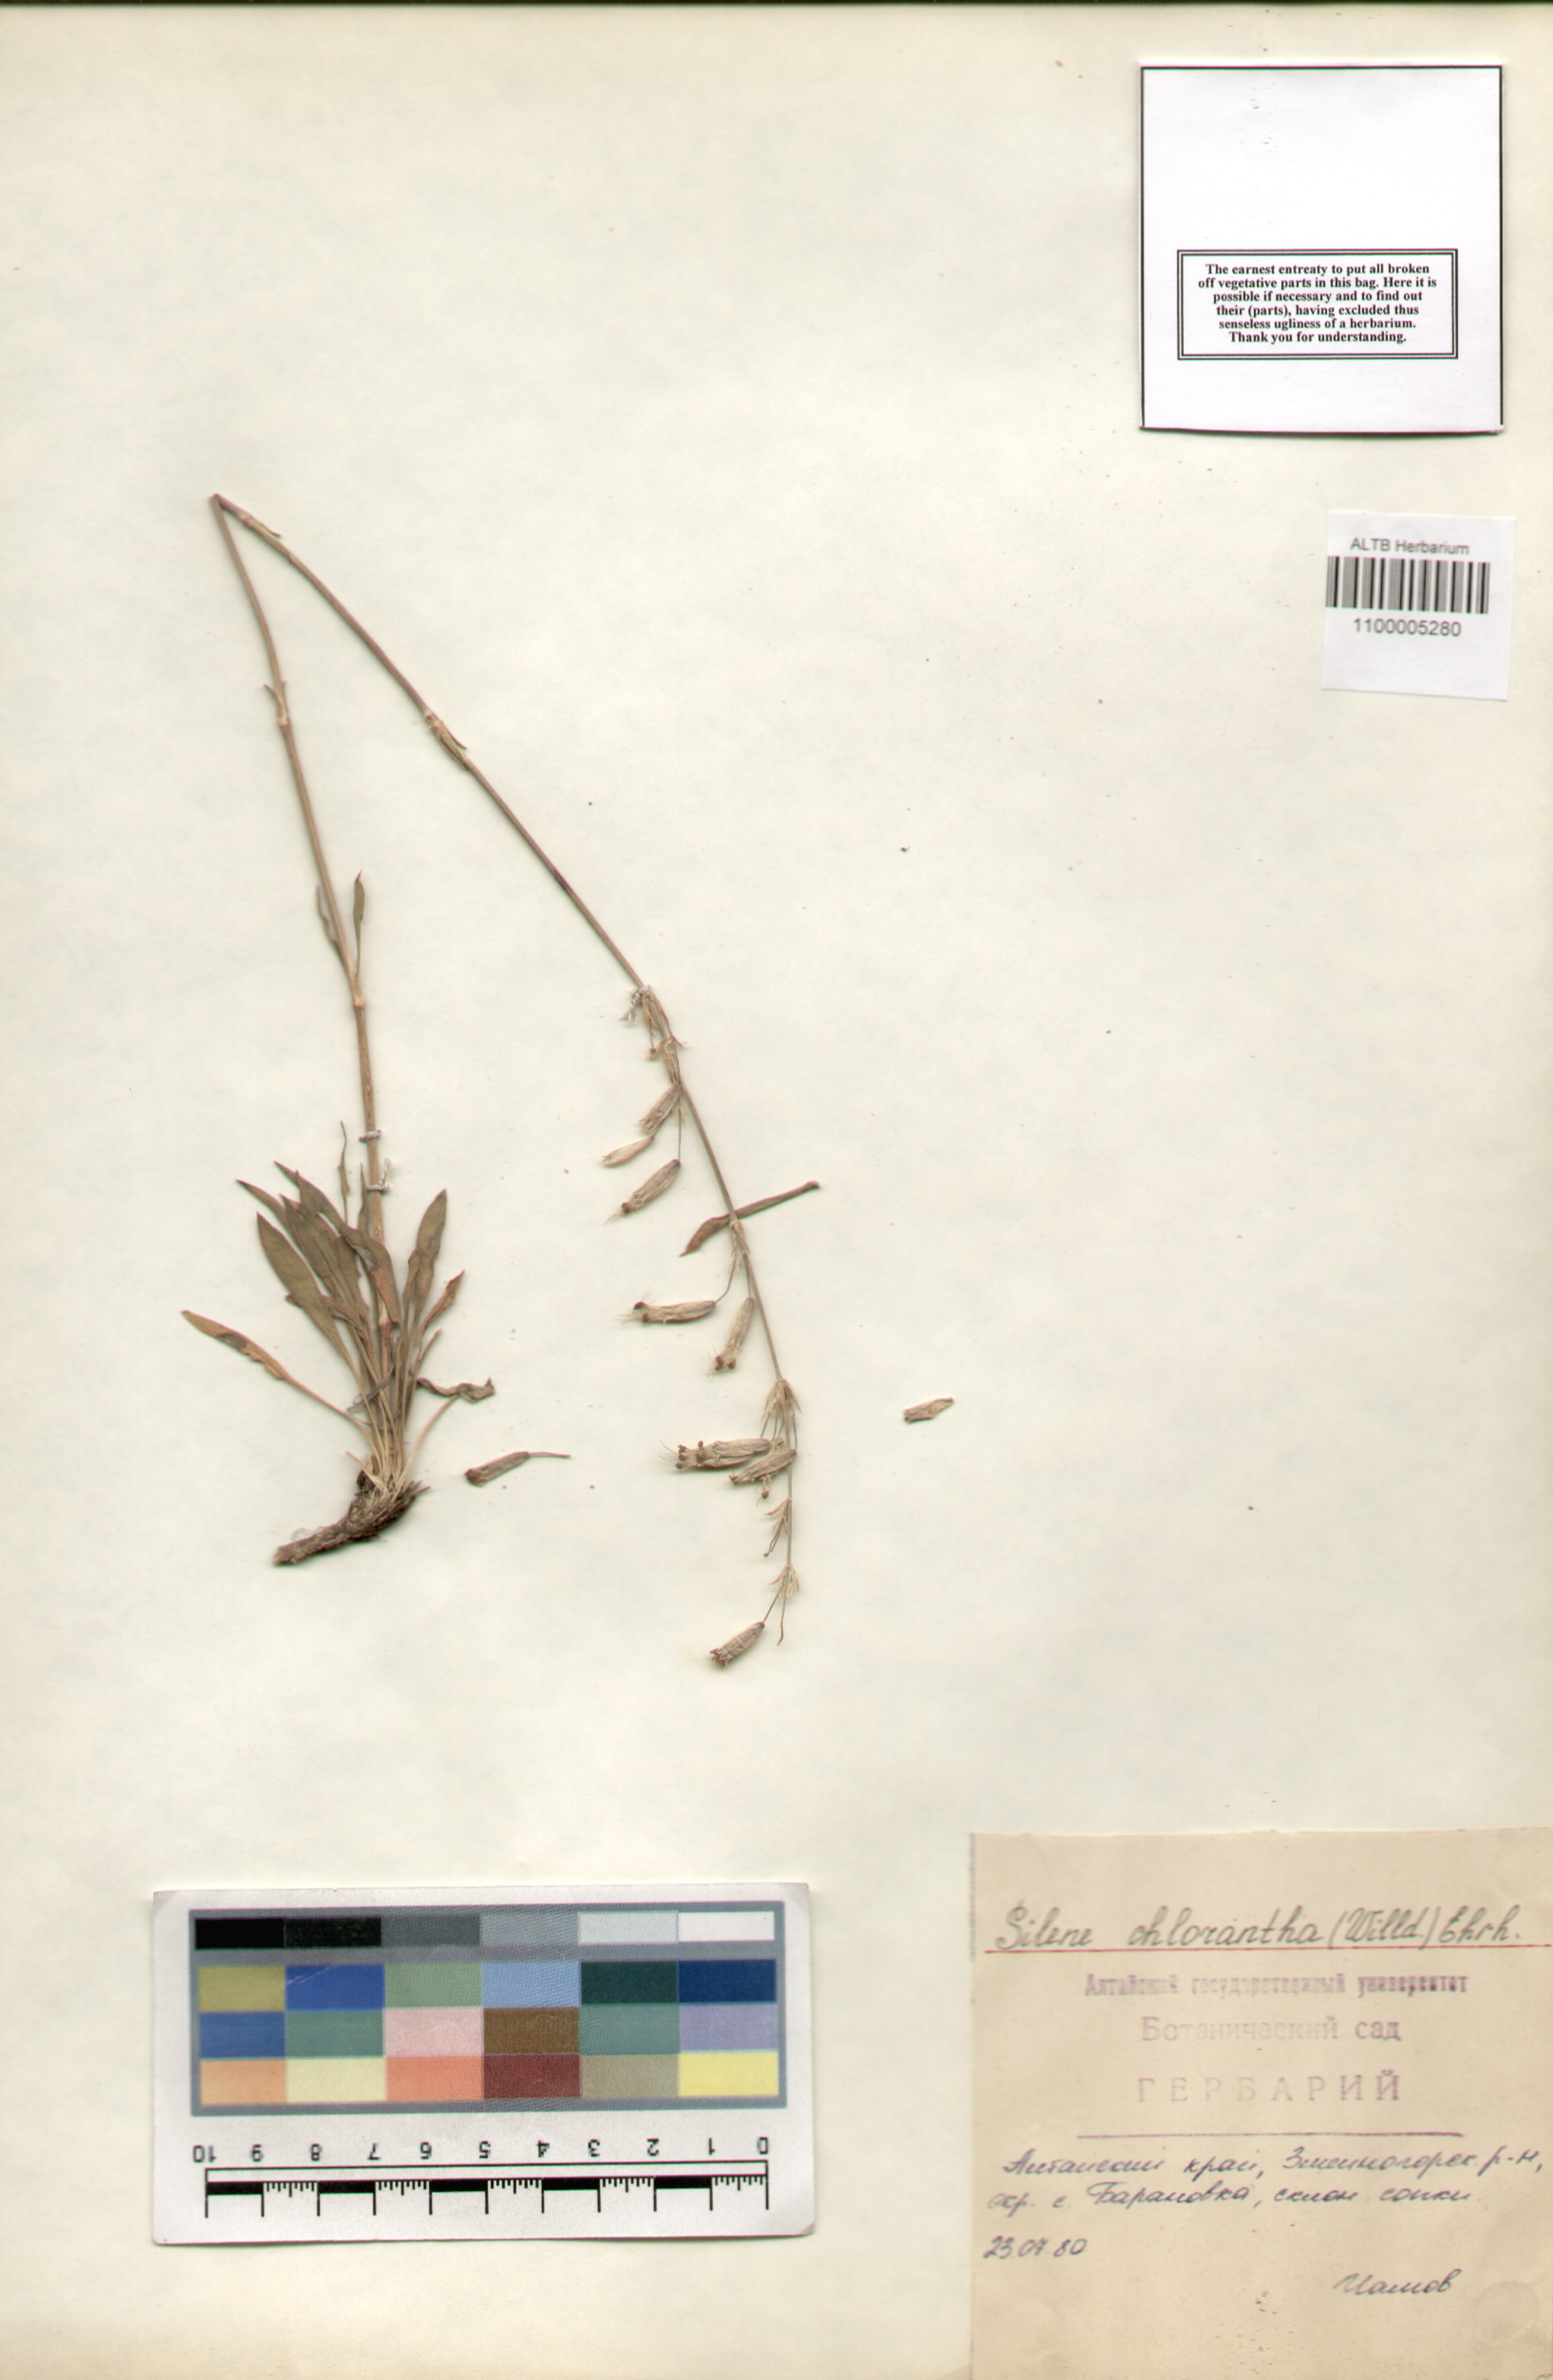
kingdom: Plantae
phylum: Tracheophyta
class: Magnoliopsida
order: Caryophyllales
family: Caryophyllaceae
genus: Silene
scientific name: Silene chlorantha
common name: Yellowgreen catchfly
